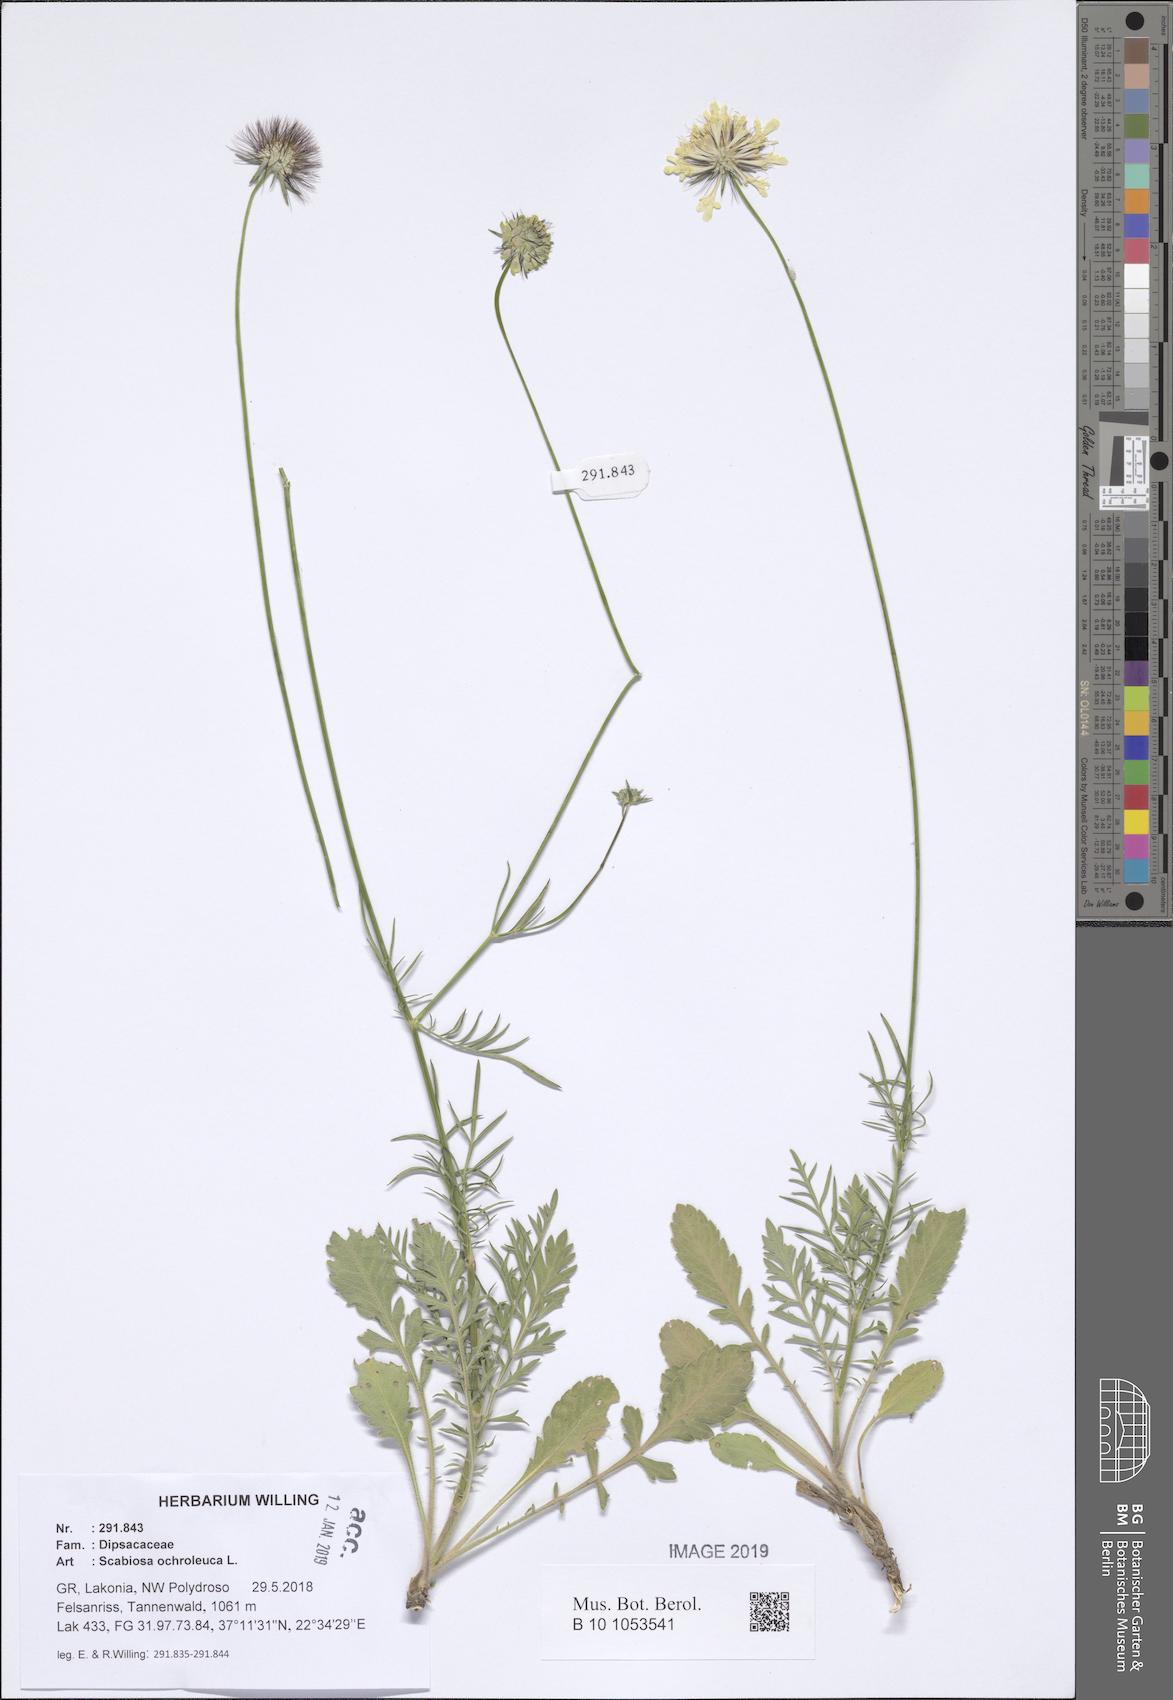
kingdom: Plantae
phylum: Tracheophyta
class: Magnoliopsida
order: Dipsacales
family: Caprifoliaceae
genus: Scabiosa
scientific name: Scabiosa ochroleuca
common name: Cream pincushions
